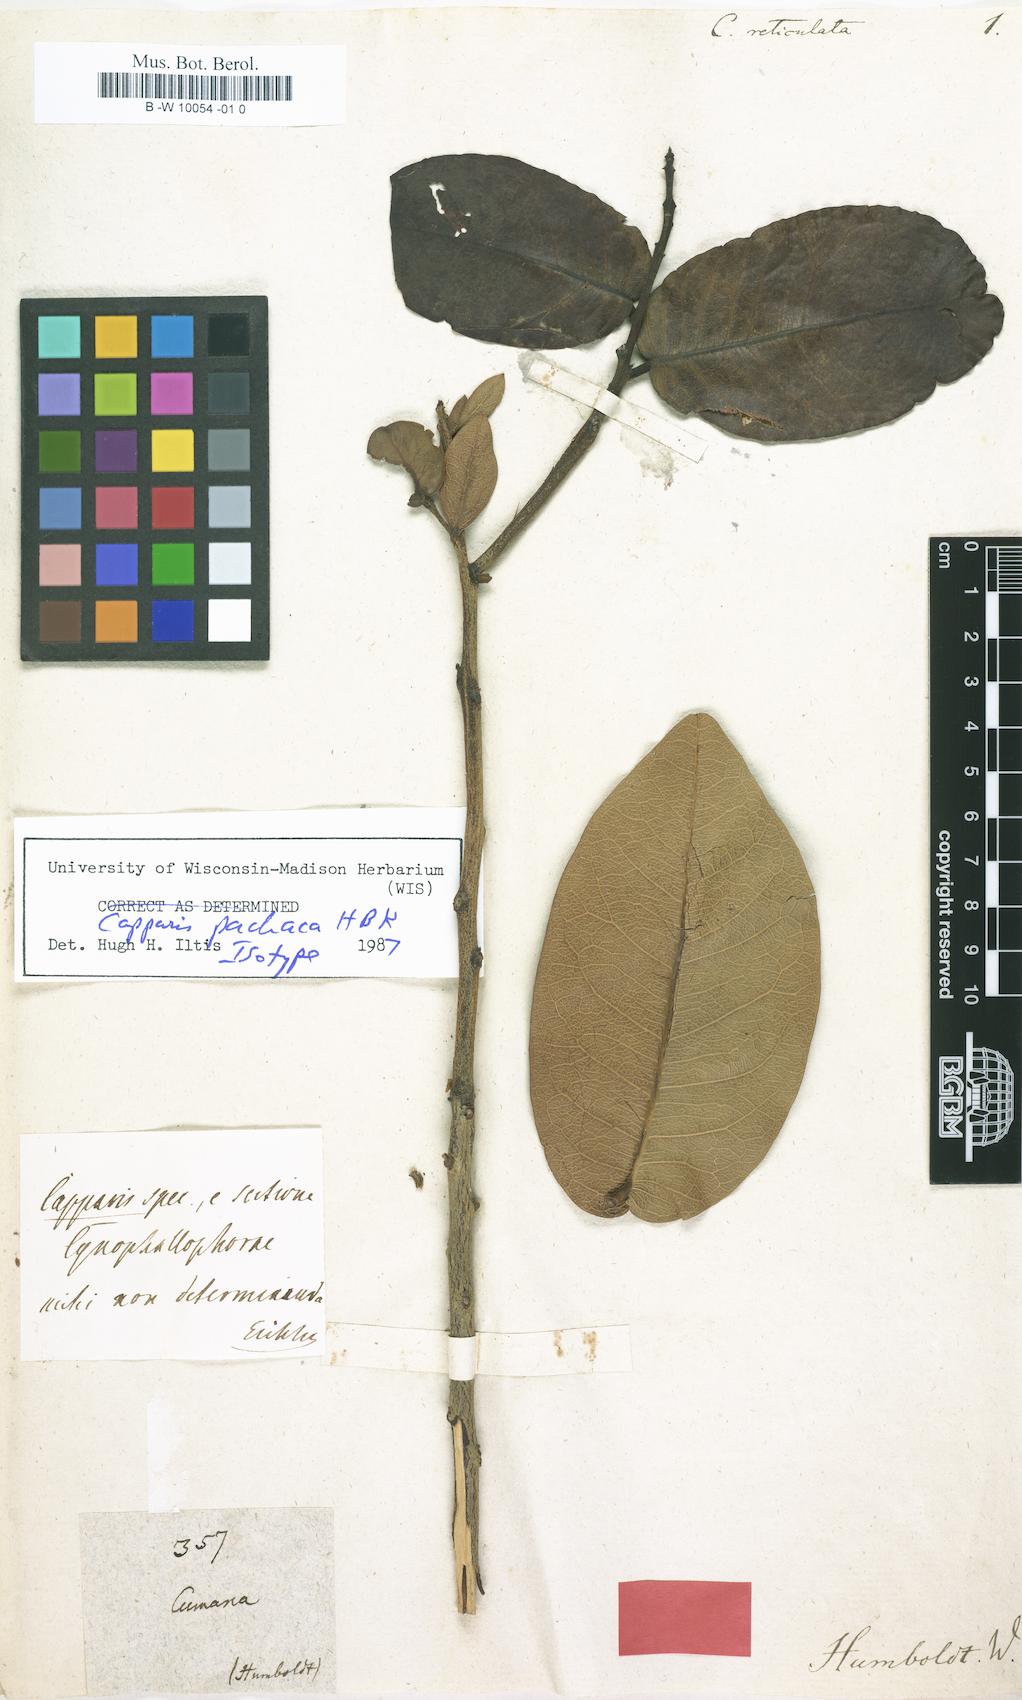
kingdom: Plantae
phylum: Tracheophyta
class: Magnoliopsida
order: Brassicales
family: Capparaceae
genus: Capparis
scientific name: Capparis diversifolia
